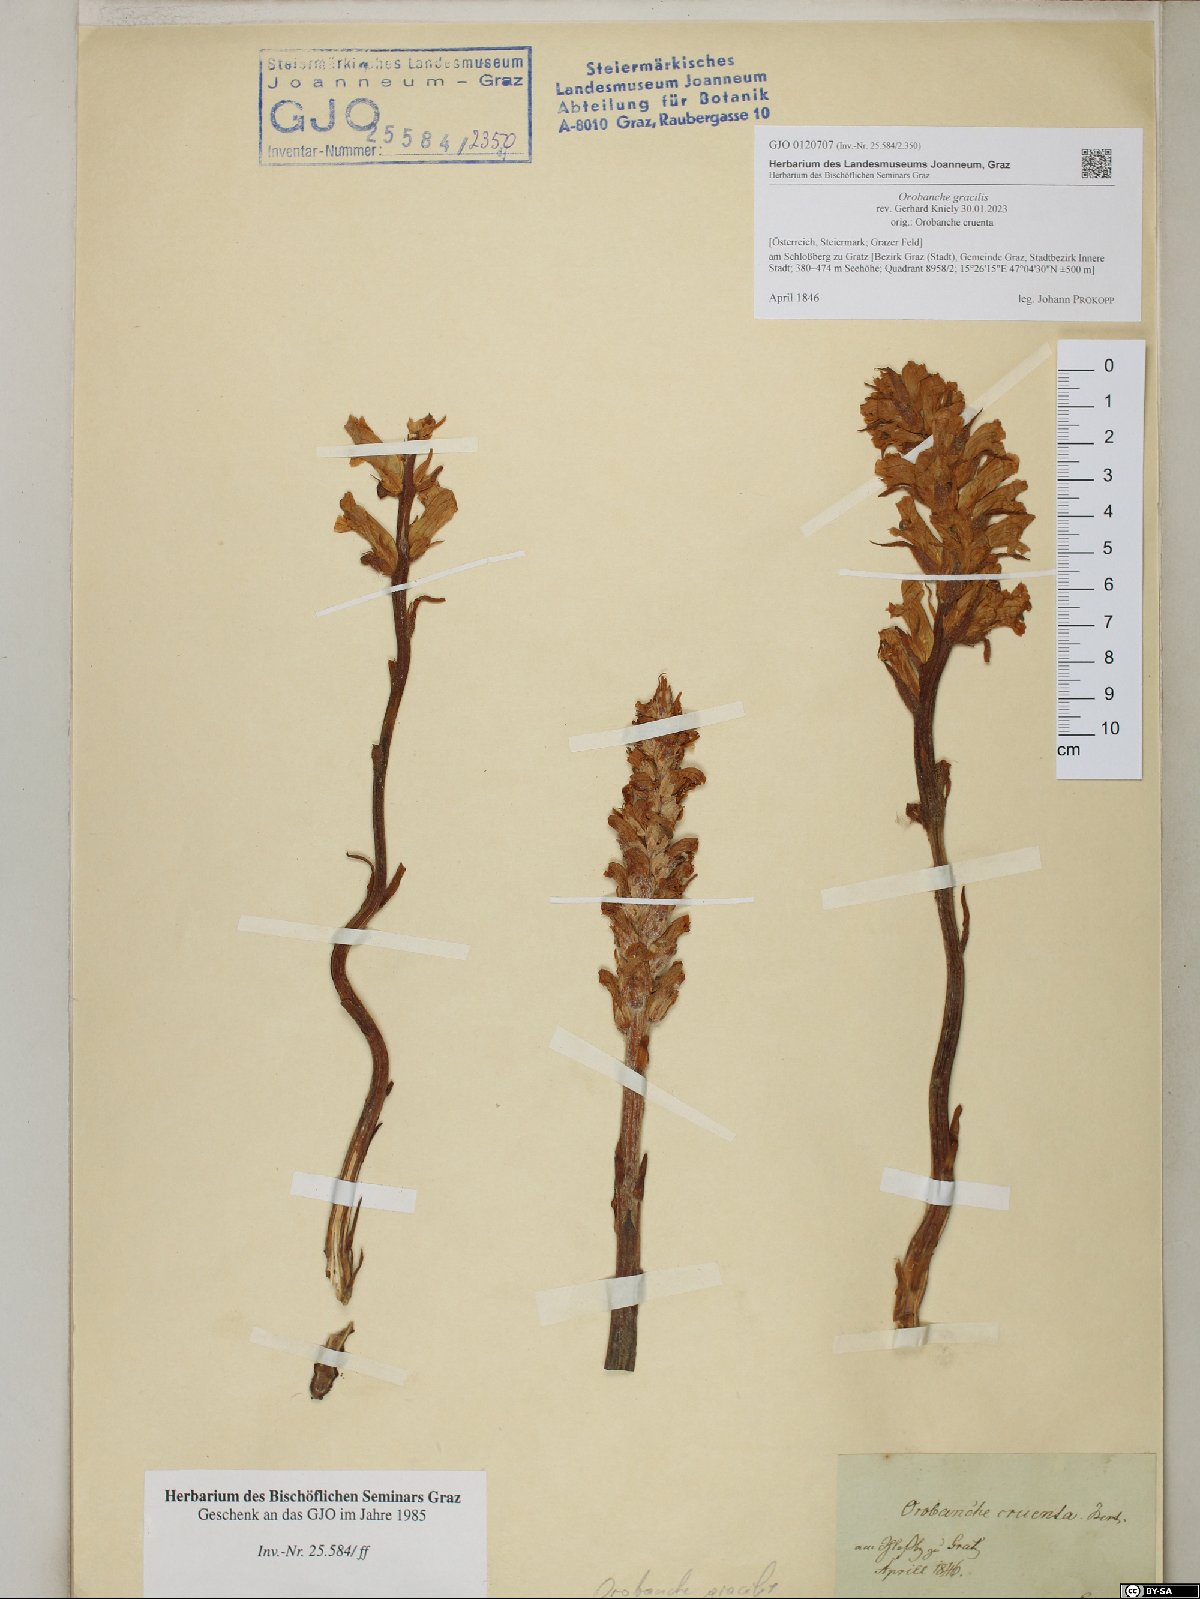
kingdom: Plantae
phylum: Tracheophyta
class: Magnoliopsida
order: Lamiales
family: Orobanchaceae
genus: Orobanche
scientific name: Orobanche gracilis
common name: Slender broomrape
